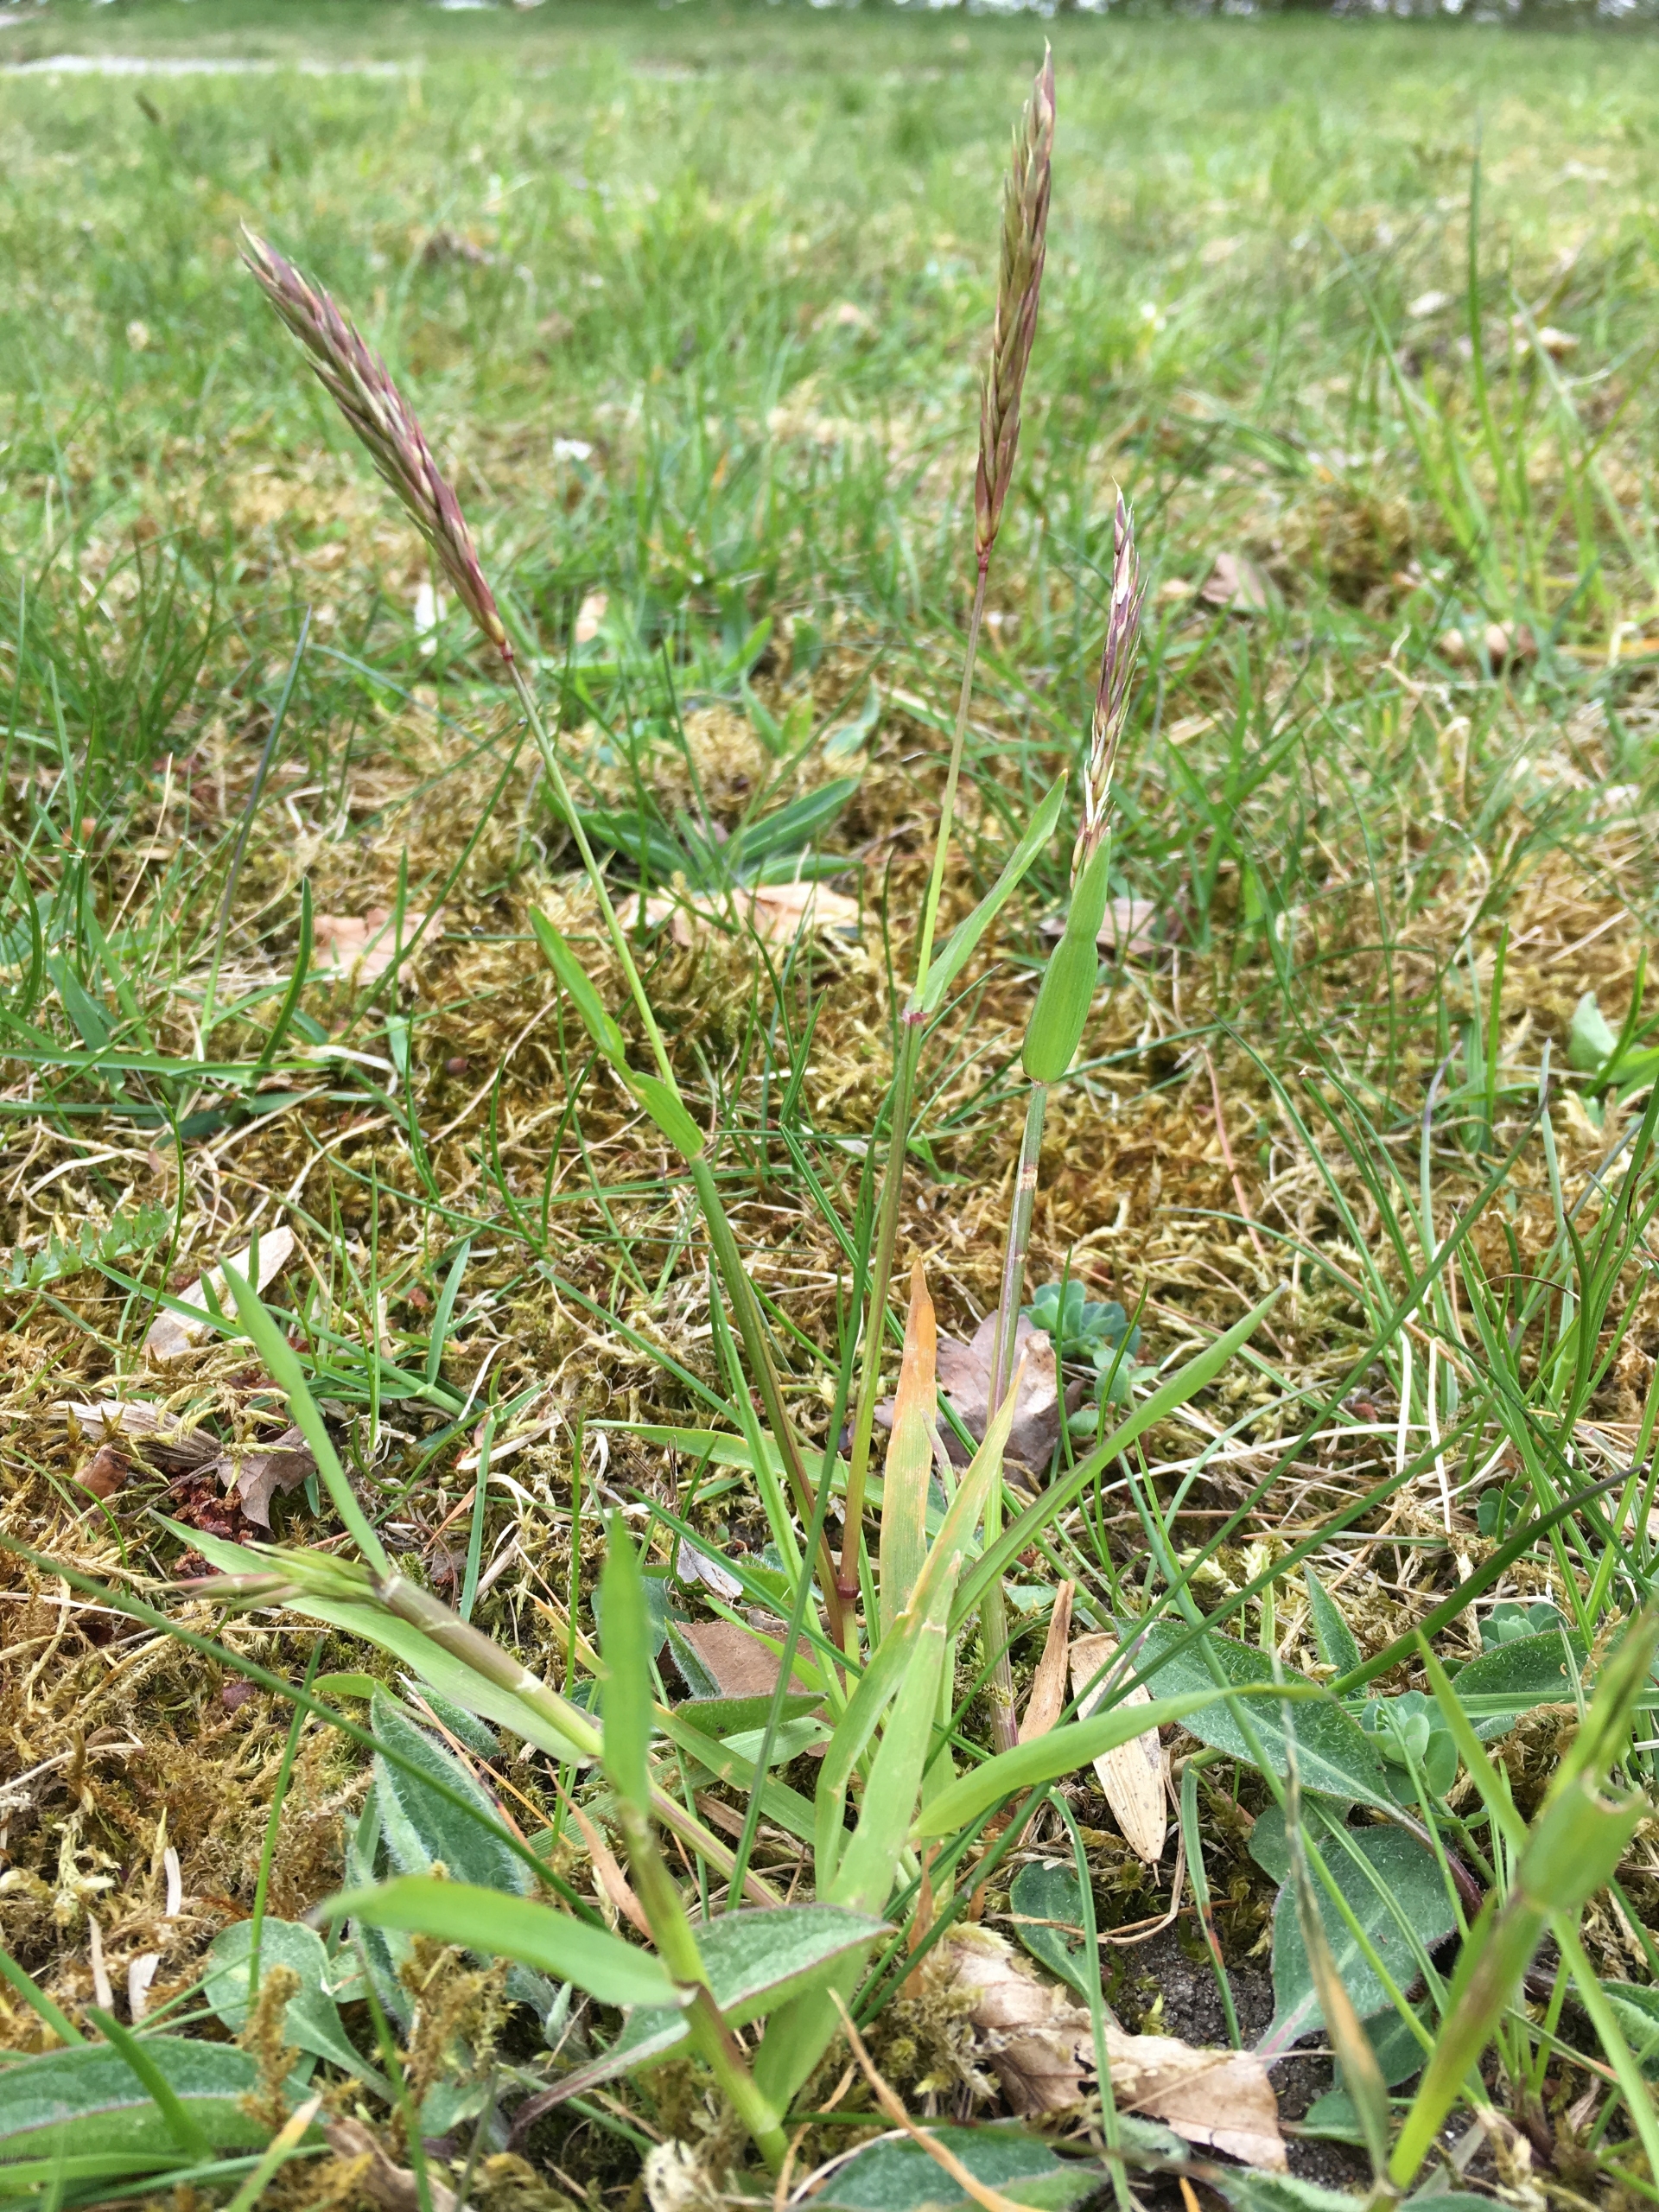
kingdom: Plantae
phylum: Tracheophyta
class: Liliopsida
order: Poales
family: Poaceae
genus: Anthoxanthum
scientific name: Anthoxanthum odoratum
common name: Vellugtende gulaks
